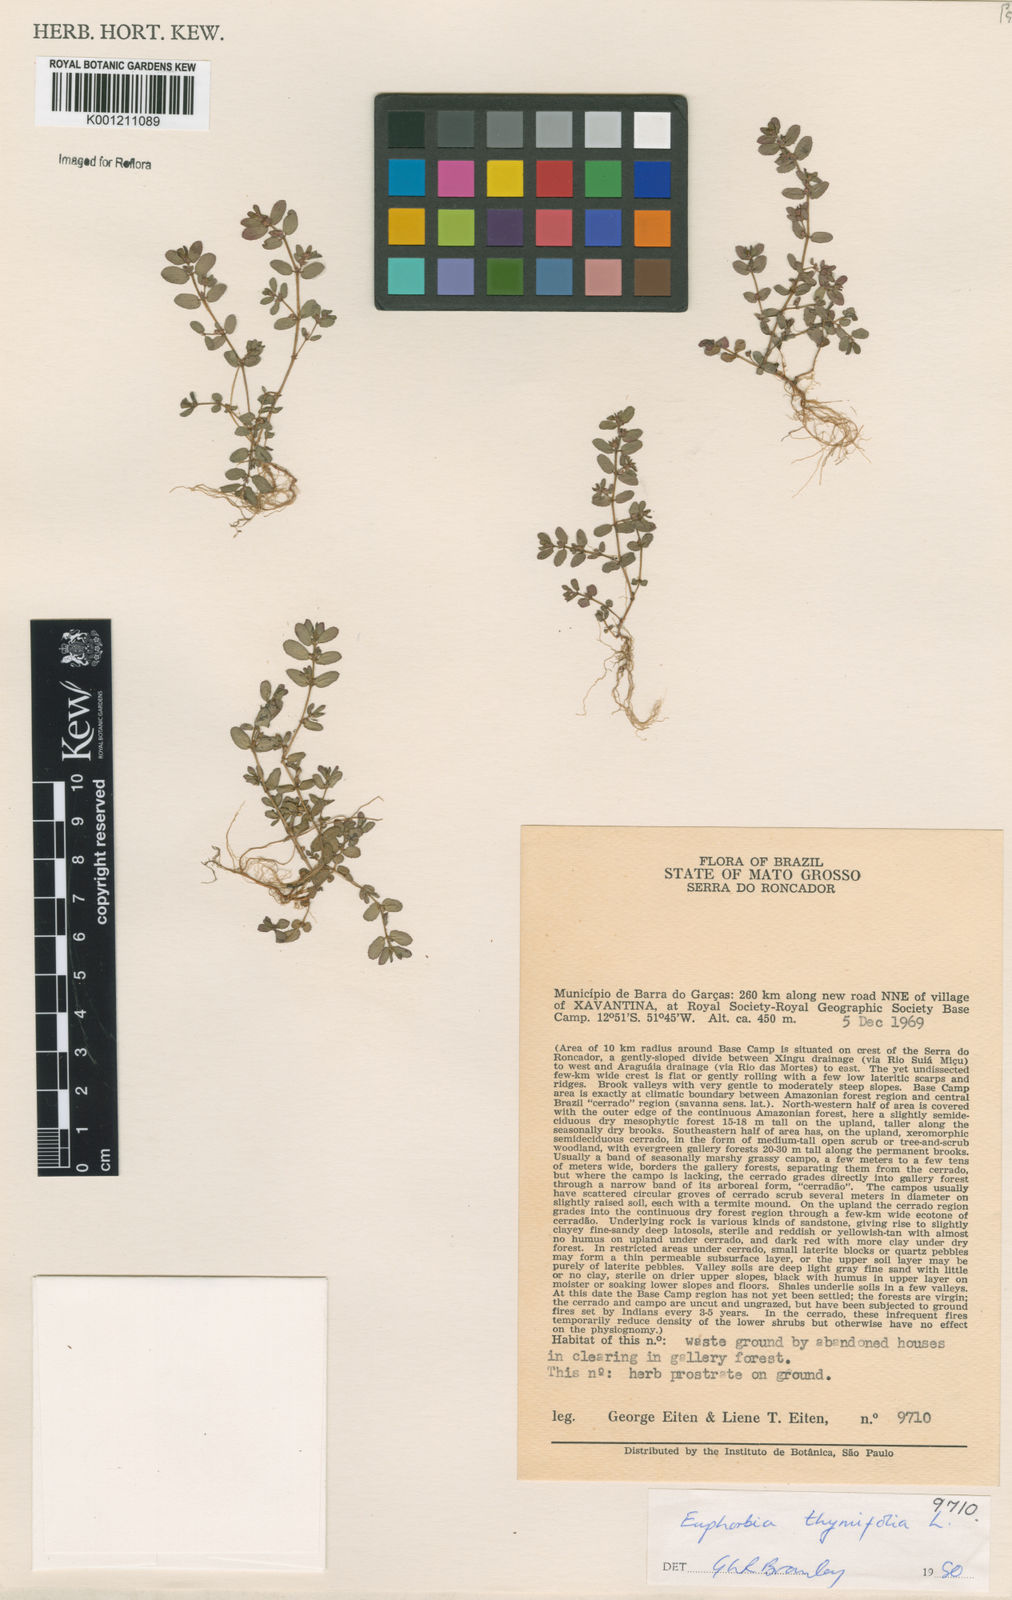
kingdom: Plantae
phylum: Tracheophyta
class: Magnoliopsida
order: Malpighiales
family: Euphorbiaceae
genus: Euphorbia
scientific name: Euphorbia thymifolia
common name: Gulf sandmat
